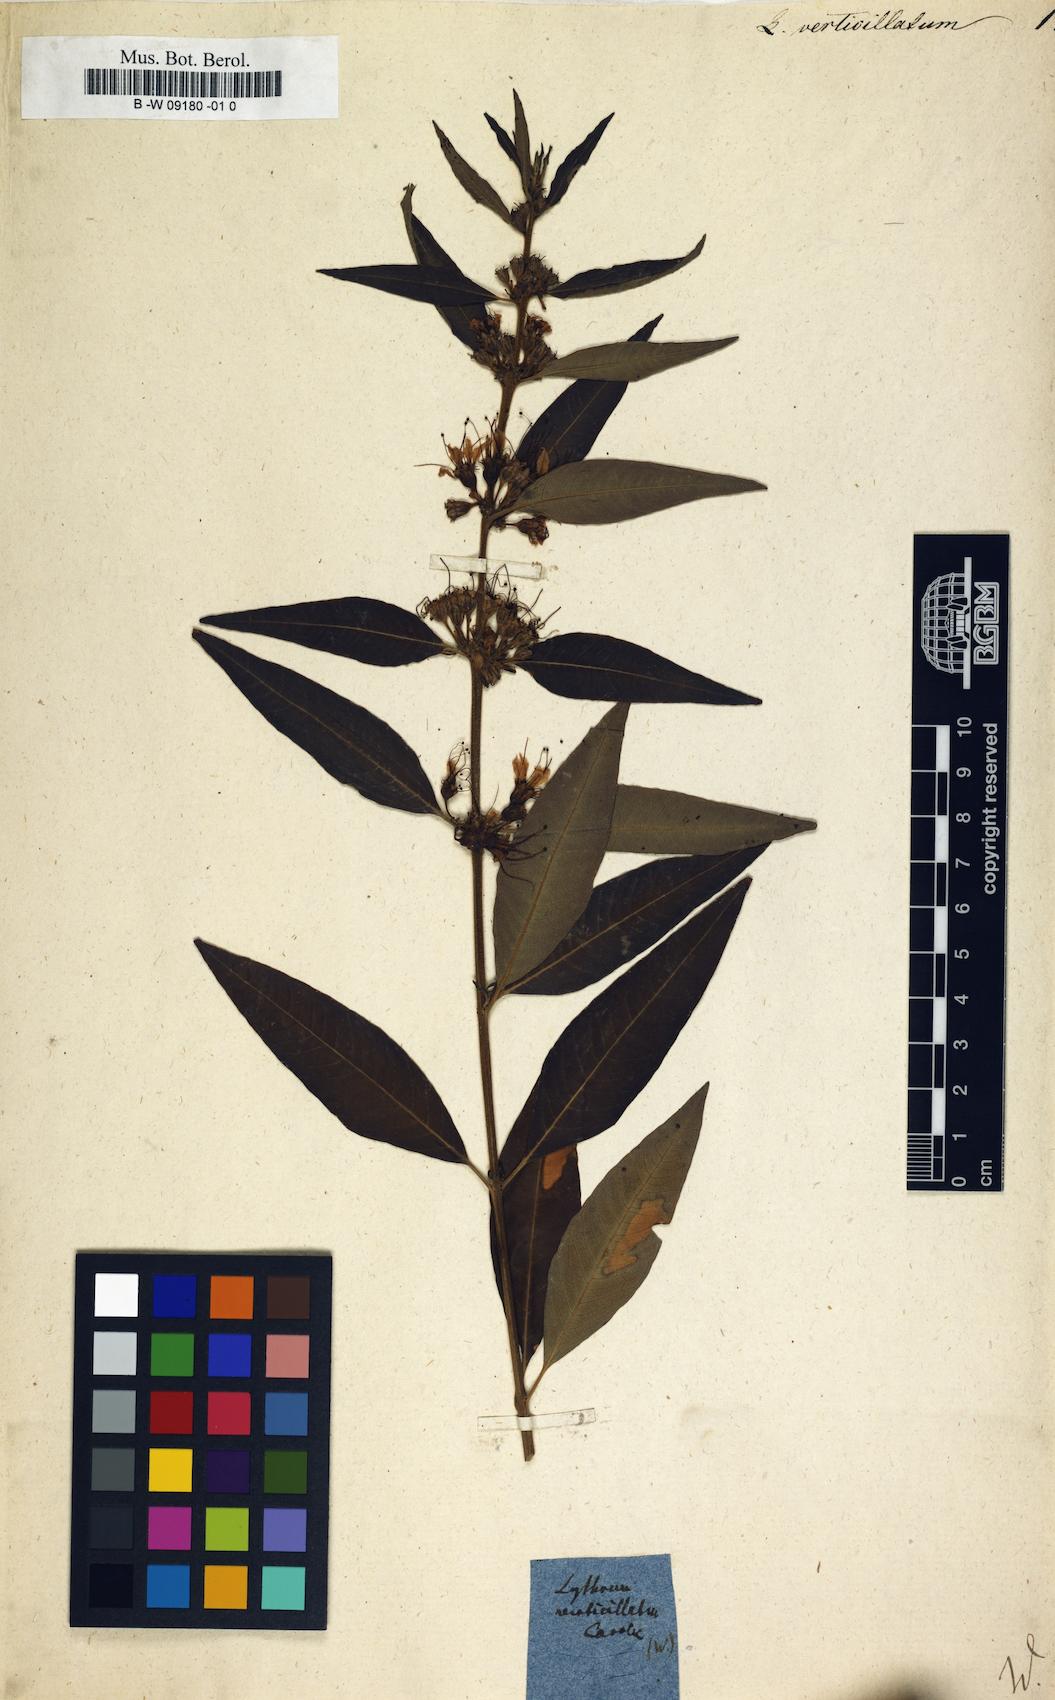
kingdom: Plantae
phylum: Tracheophyta
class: Magnoliopsida
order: Myrtales
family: Lythraceae
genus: Decodon
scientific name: Decodon verticillatus
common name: Hairy swamp loosestrife
